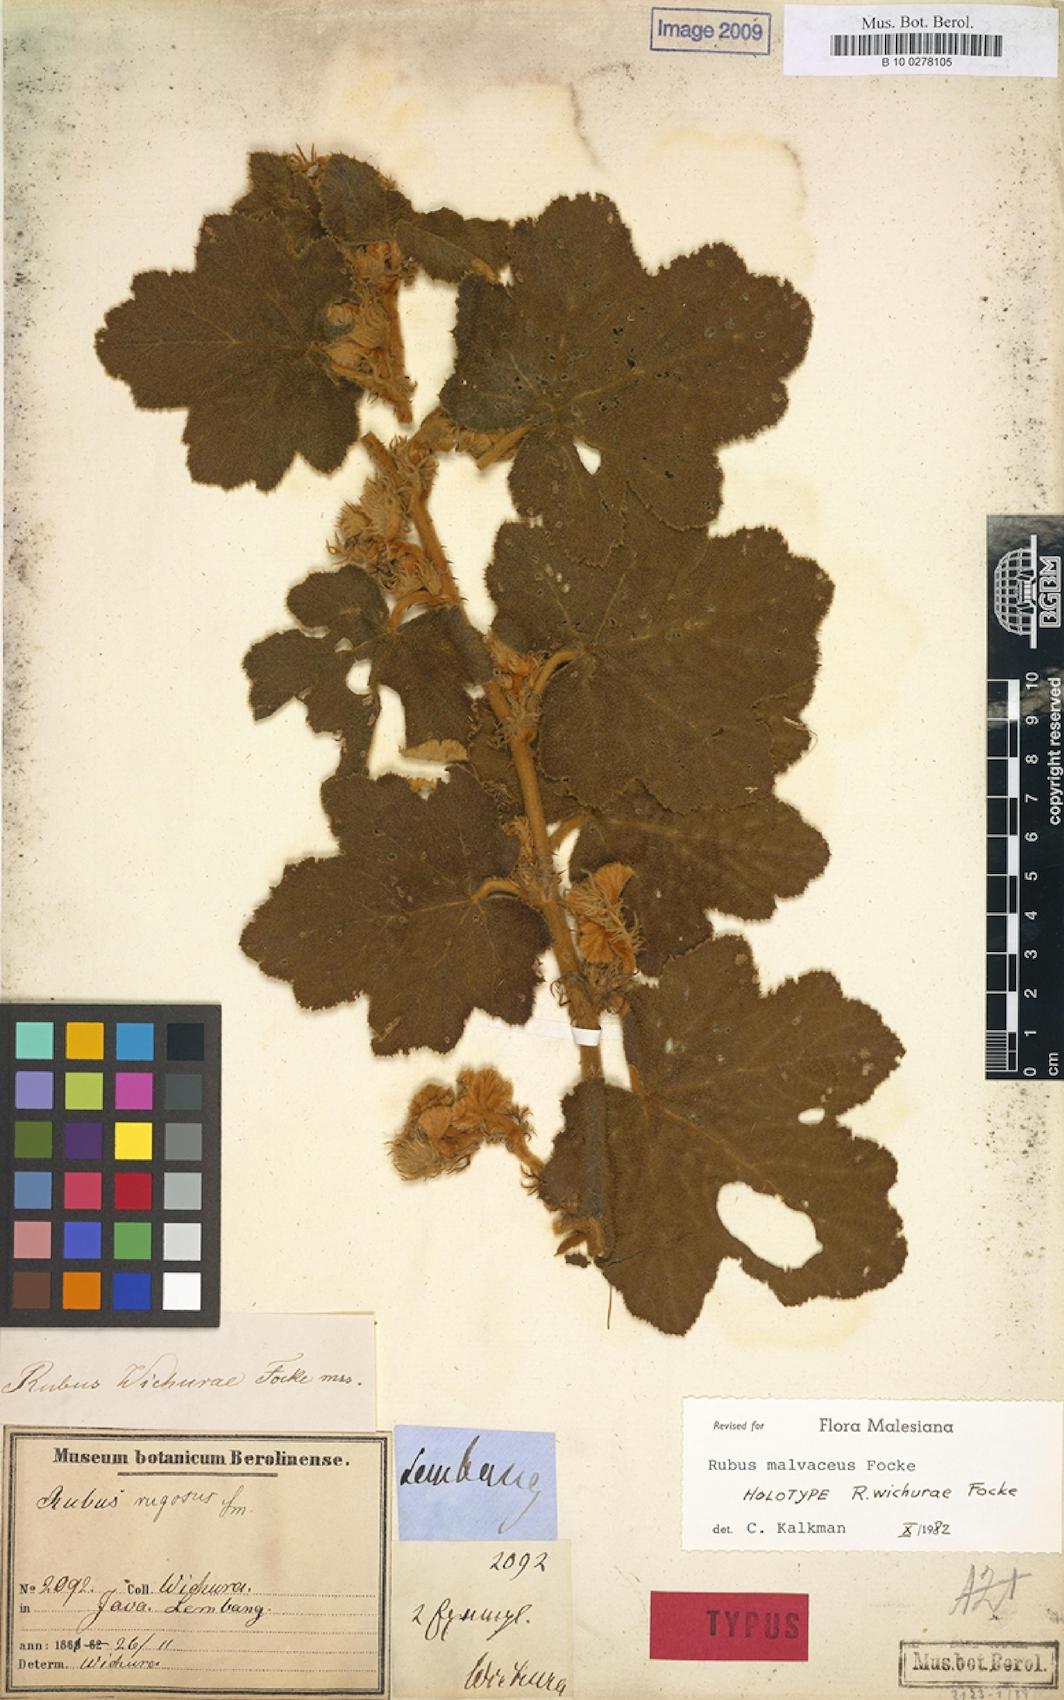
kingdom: Plantae
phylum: Tracheophyta
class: Magnoliopsida
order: Rosales
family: Rosaceae
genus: Rubus
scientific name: Rubus malvaceus
